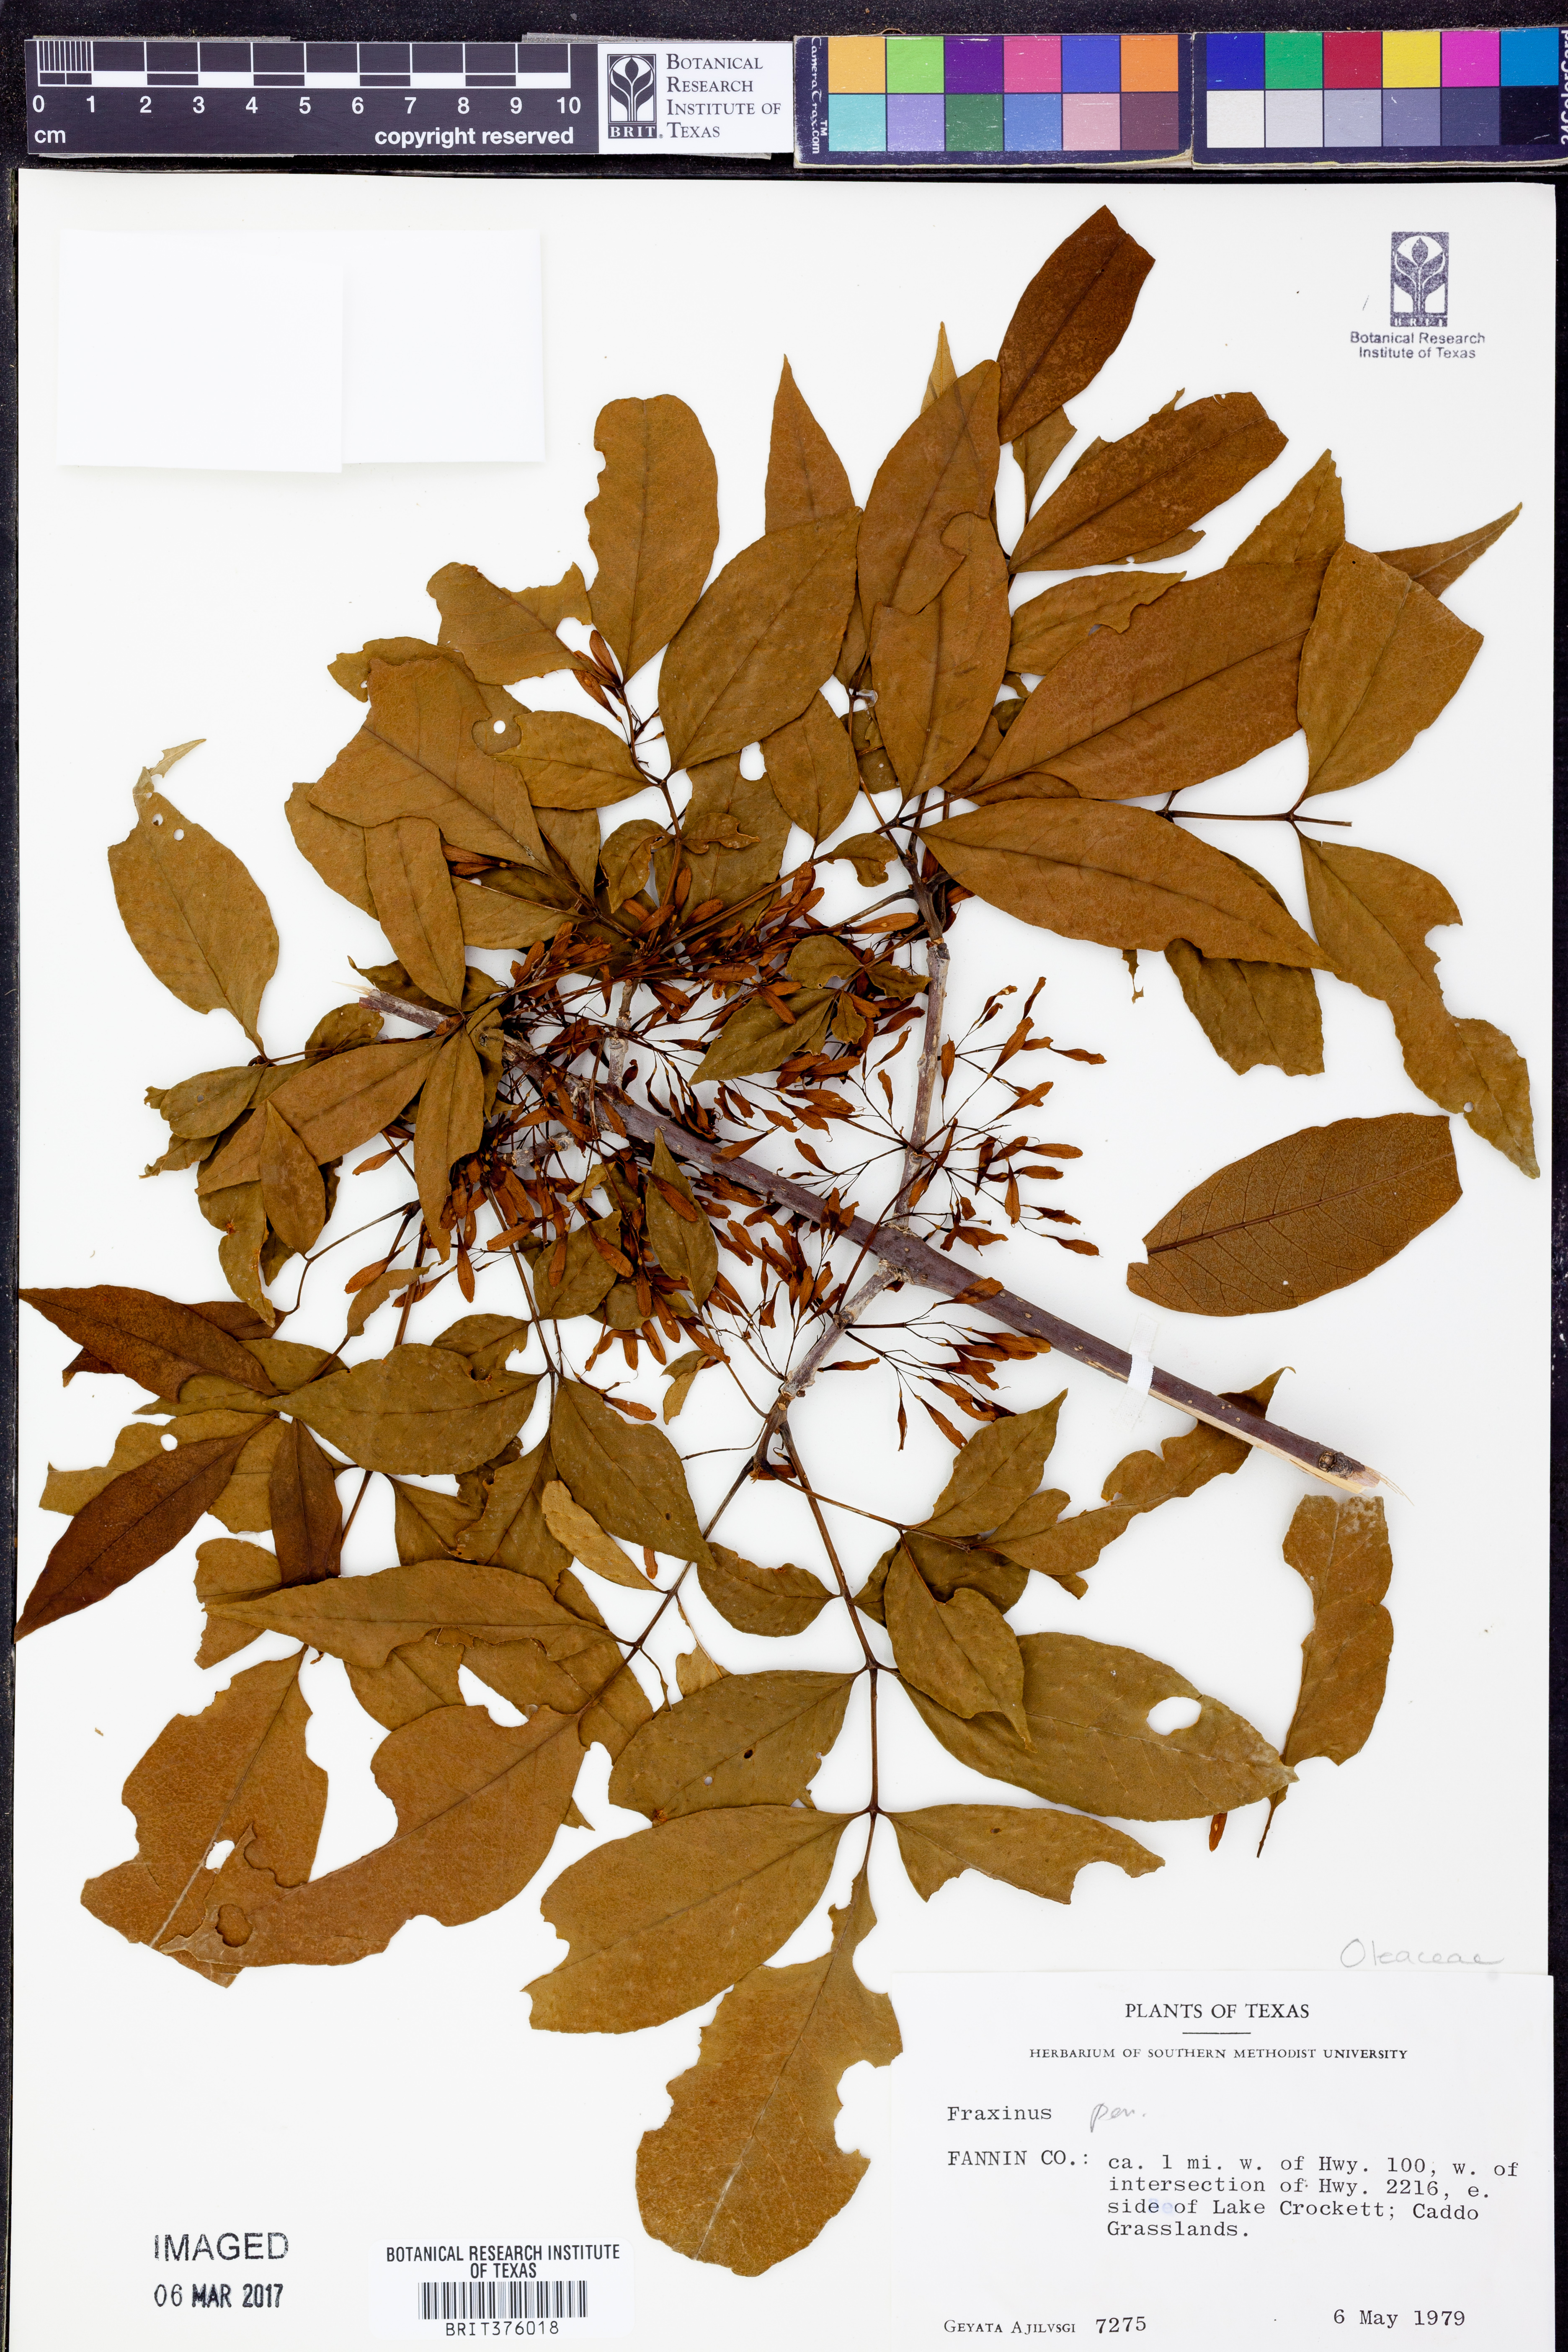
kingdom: Plantae
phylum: Tracheophyta
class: Magnoliopsida
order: Lamiales
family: Oleaceae
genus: Fraxinus
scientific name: Fraxinus
